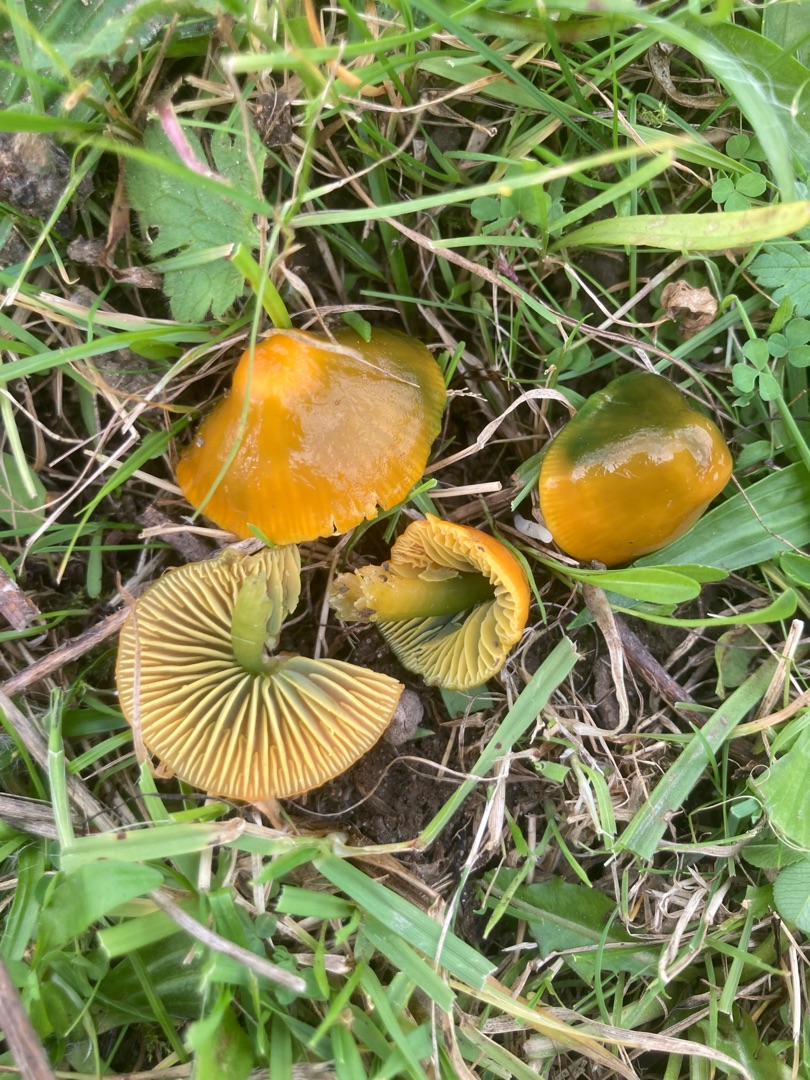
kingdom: Fungi
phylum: Basidiomycota
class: Agaricomycetes
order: Agaricales
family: Hygrophoraceae
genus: Gliophorus
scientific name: Gliophorus psittacinus
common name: Papegøje-vokshat
